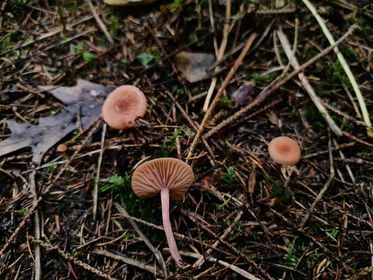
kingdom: Fungi
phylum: Basidiomycota
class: Agaricomycetes
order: Agaricales
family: Hydnangiaceae
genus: Laccaria
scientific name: Laccaria laccata
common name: rød ametysthat
